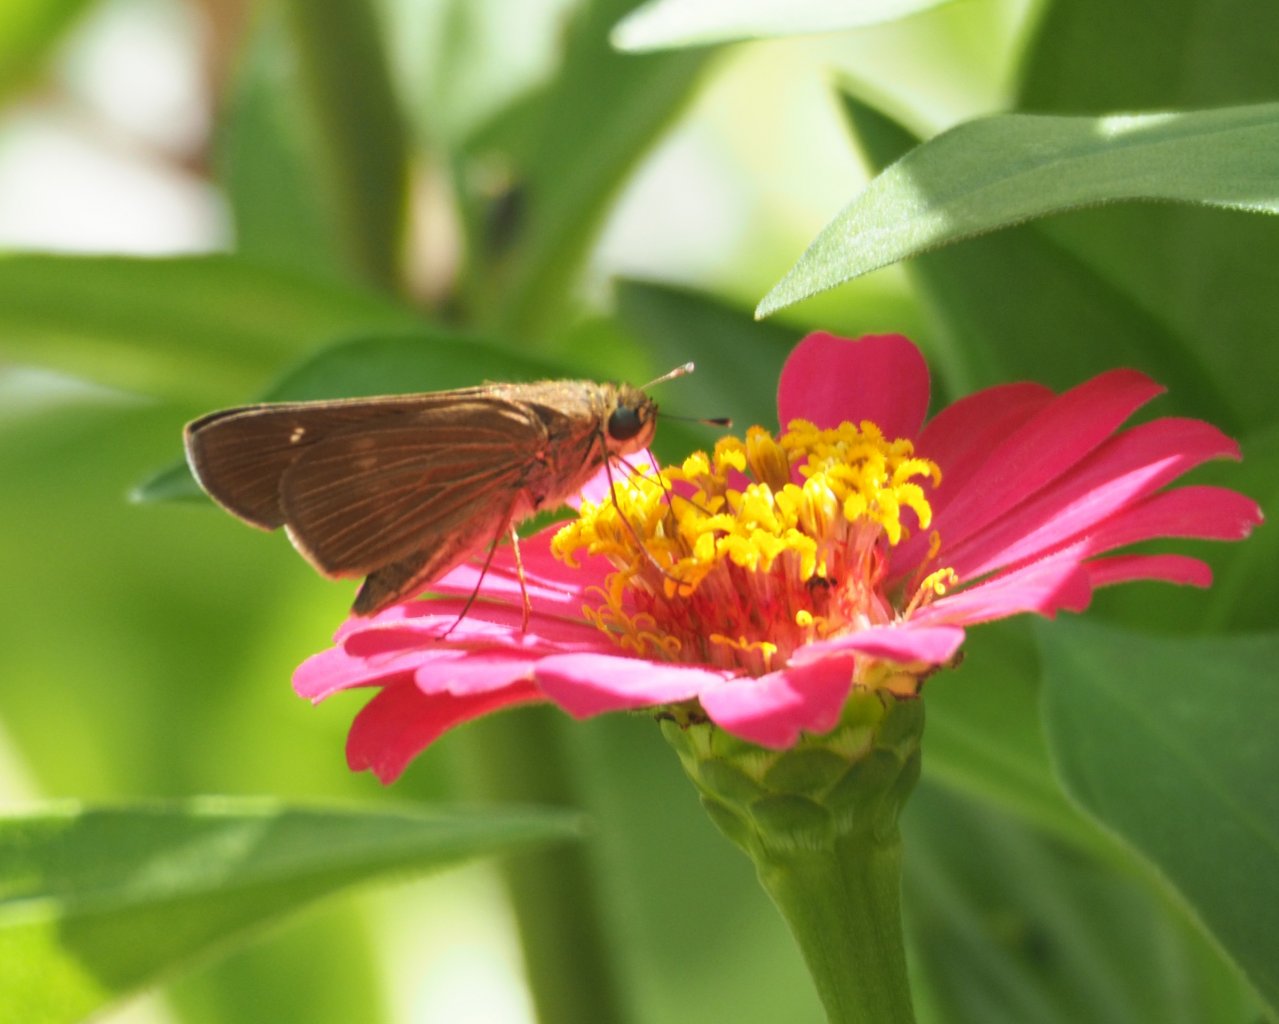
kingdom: Animalia
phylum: Arthropoda
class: Insecta
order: Lepidoptera
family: Hesperiidae
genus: Panoquina
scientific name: Panoquina ocola
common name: Ocola Skipper
